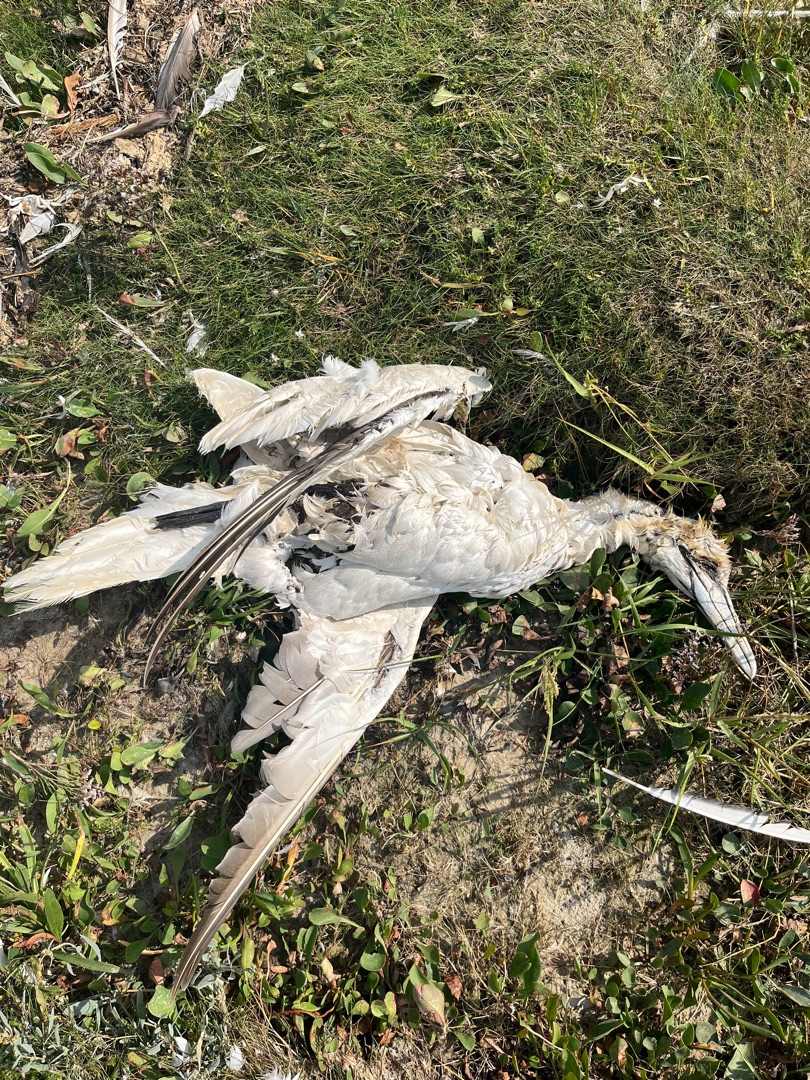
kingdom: Animalia
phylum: Chordata
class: Aves
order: Suliformes
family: Sulidae
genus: Morus
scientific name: Morus bassanus
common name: Sule
